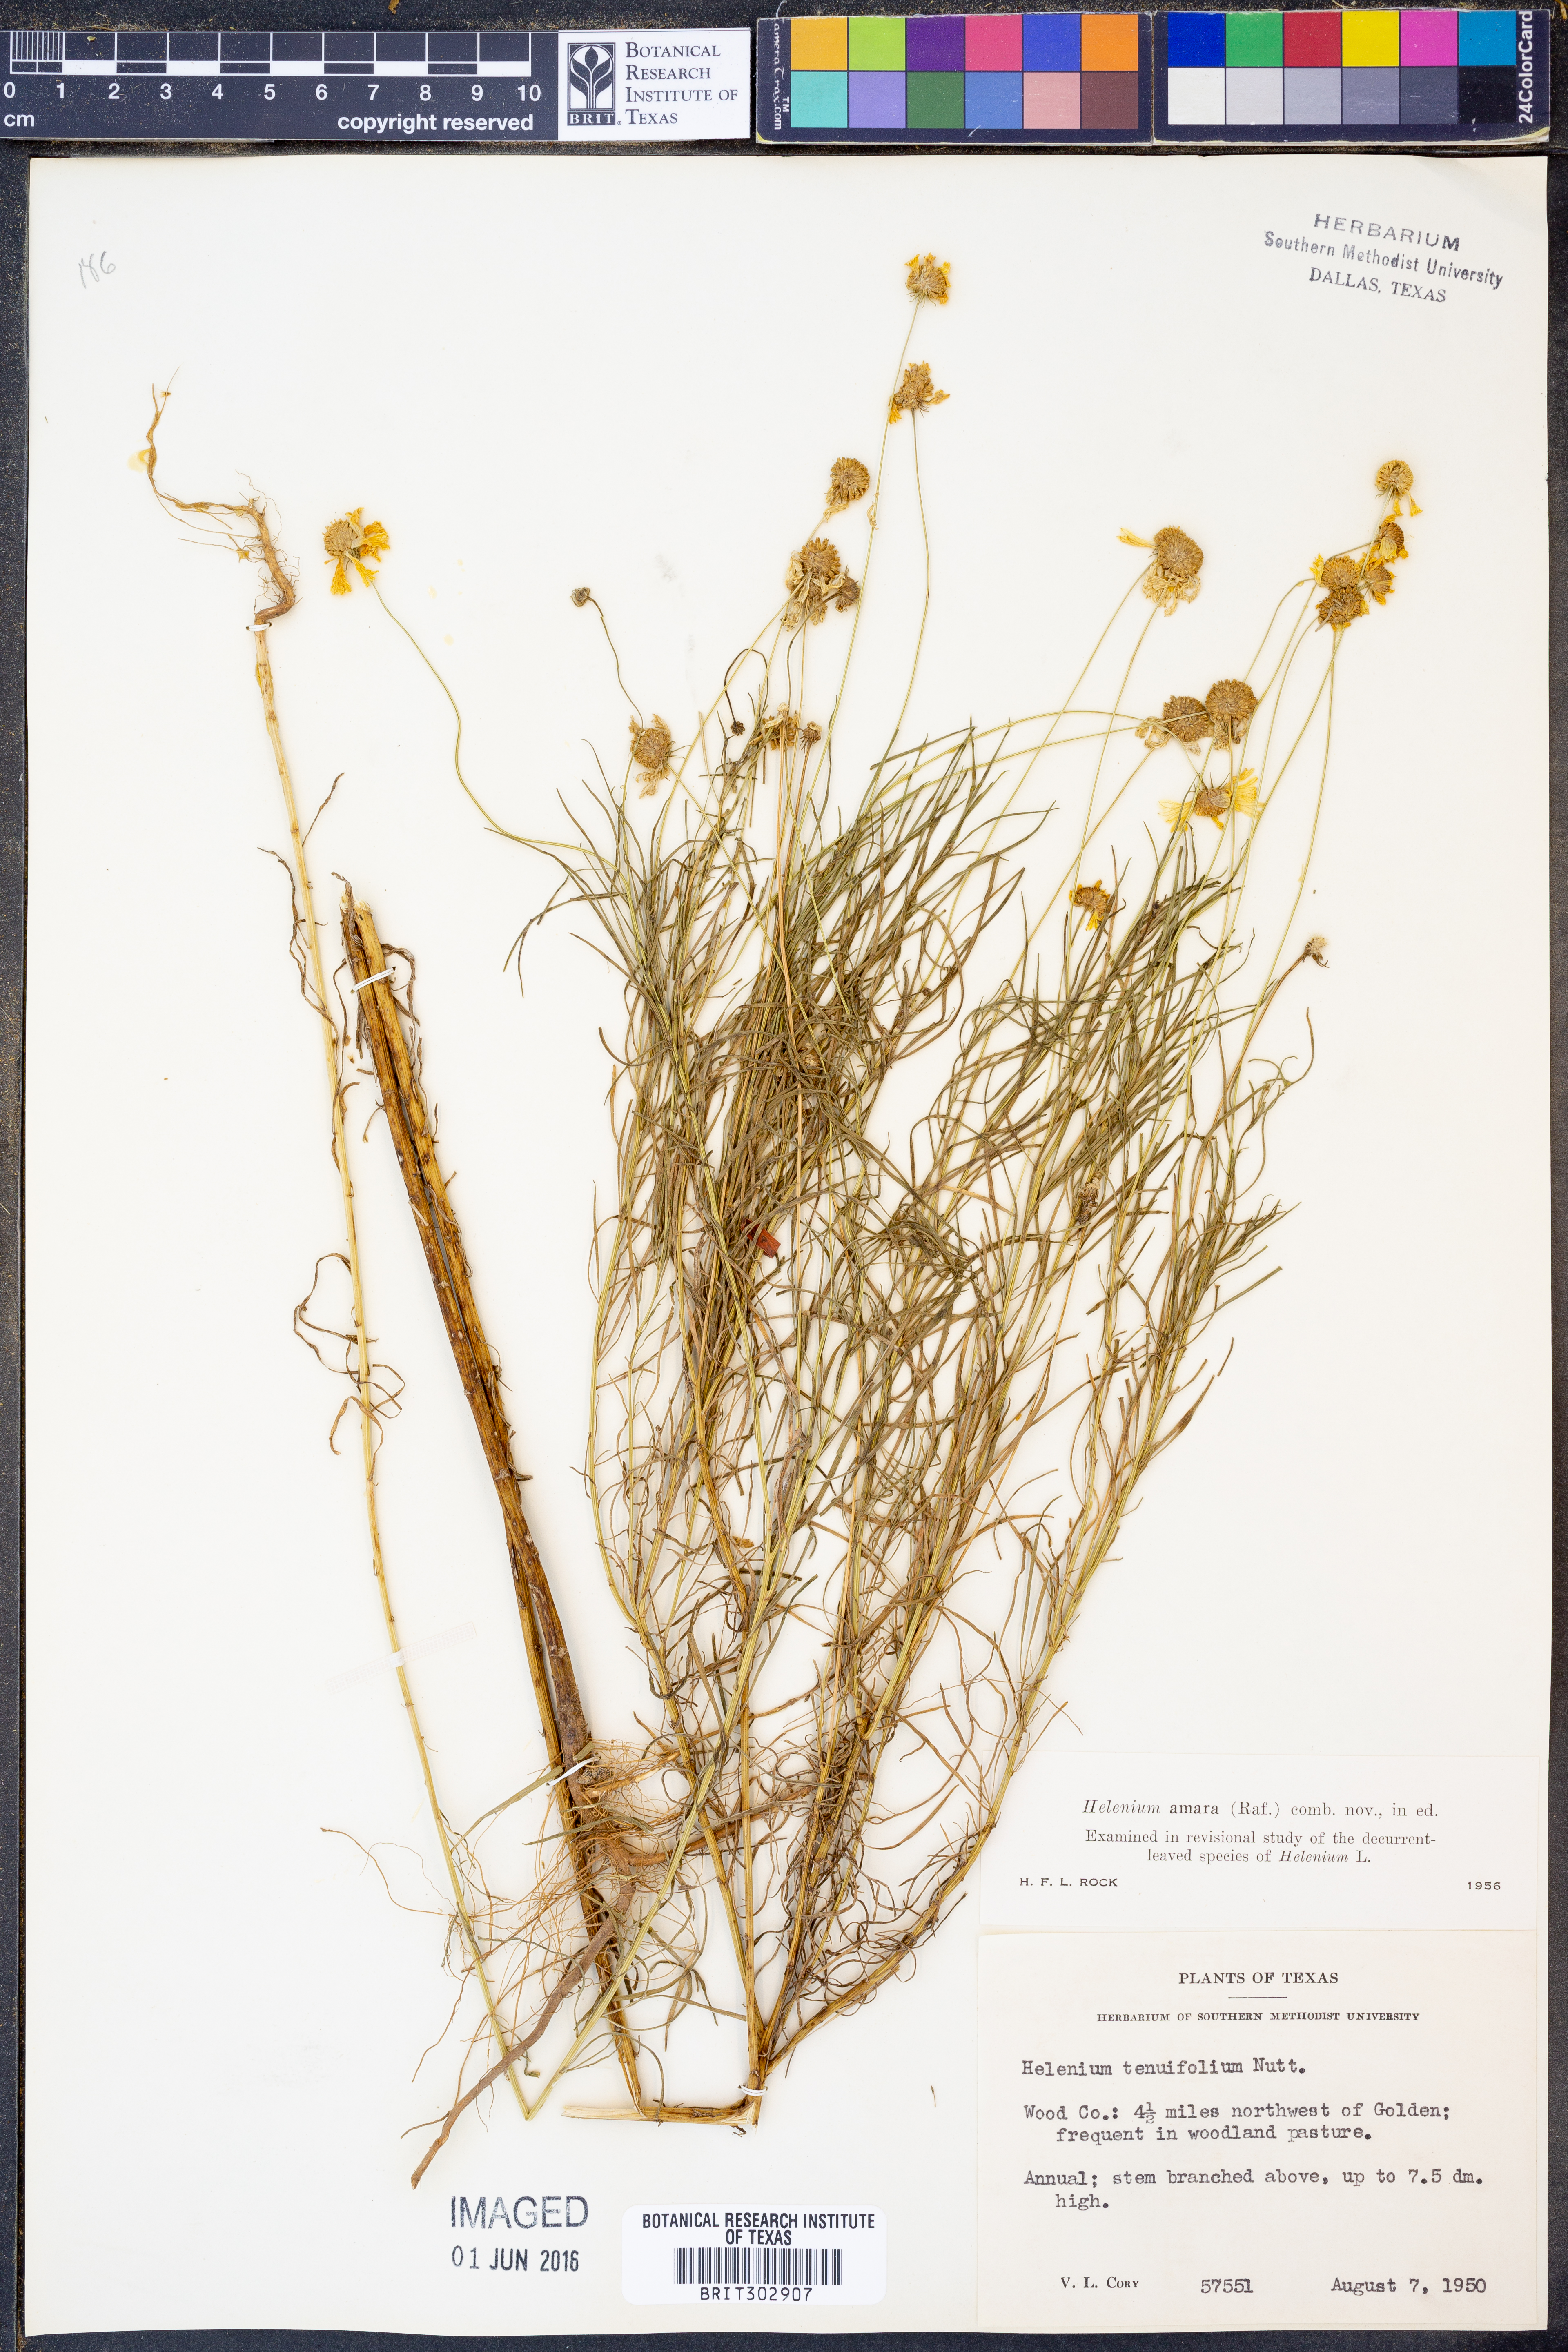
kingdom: Plantae
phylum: Tracheophyta
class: Magnoliopsida
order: Asterales
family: Asteraceae
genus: Helenium
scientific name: Helenium amarum
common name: Bitter sneezeweed
